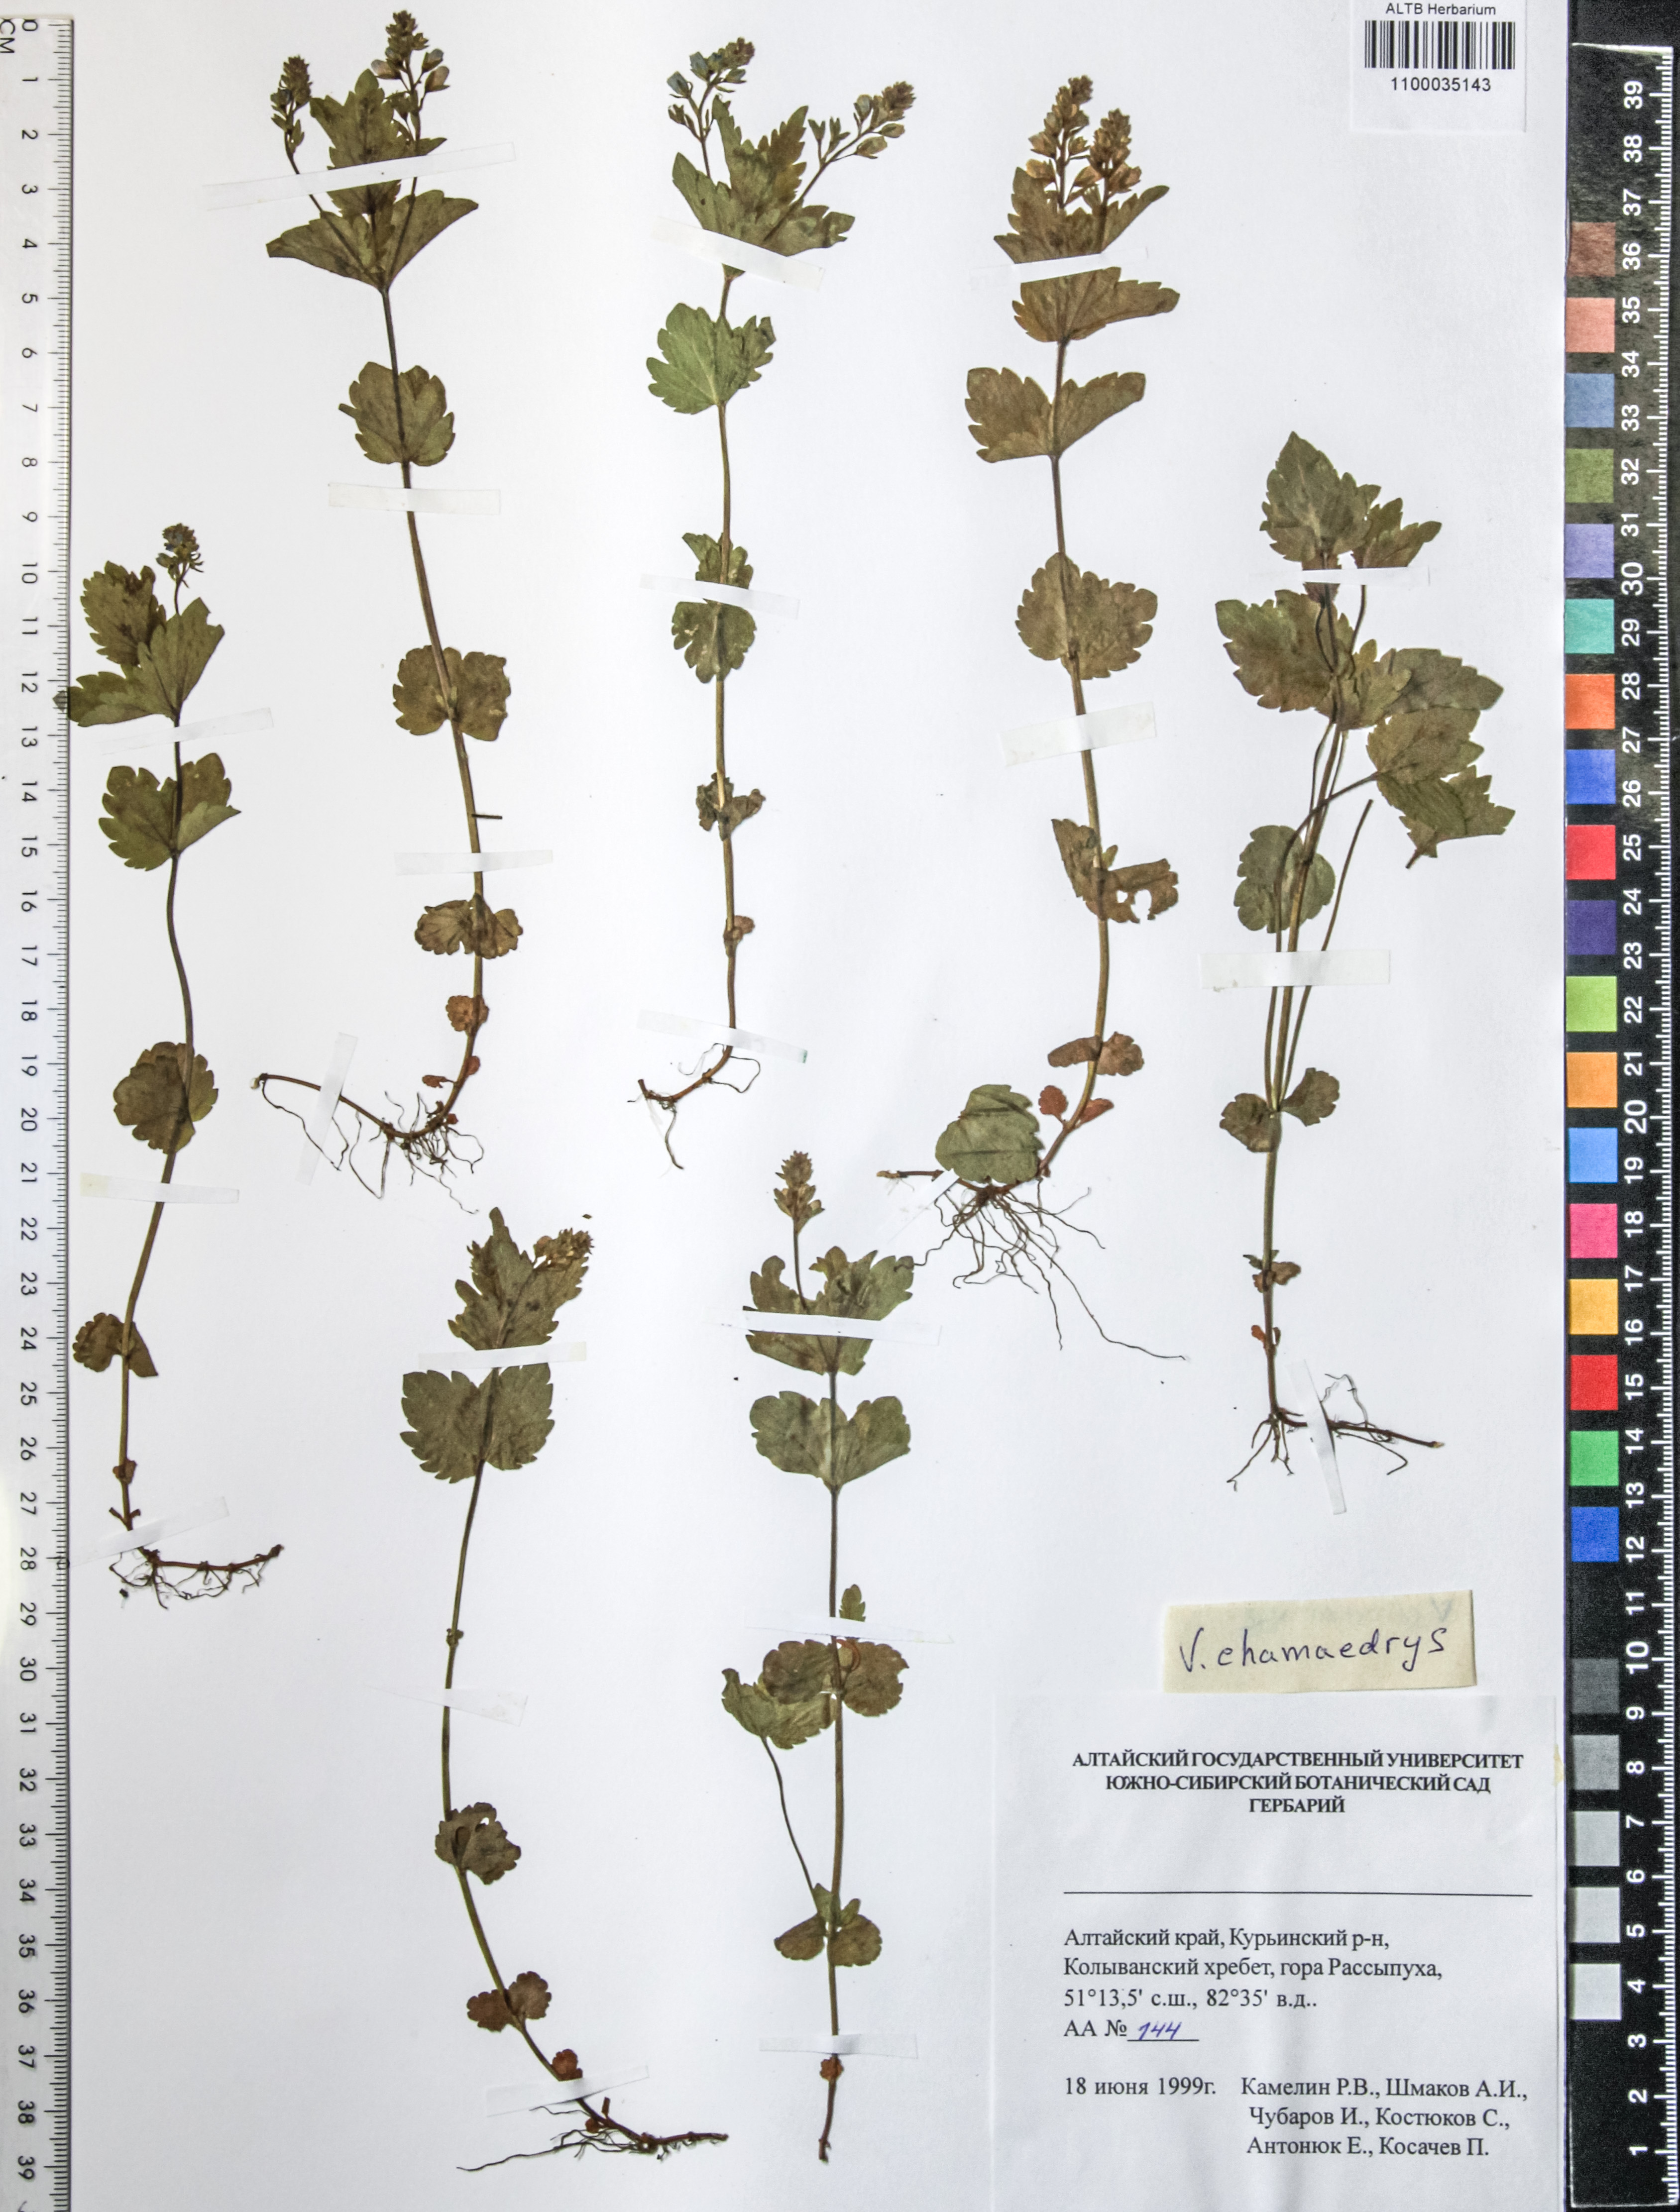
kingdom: Plantae
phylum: Tracheophyta
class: Magnoliopsida
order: Lamiales
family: Plantaginaceae
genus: Veronica
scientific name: Veronica chamaedrys
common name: Germander speedwell
